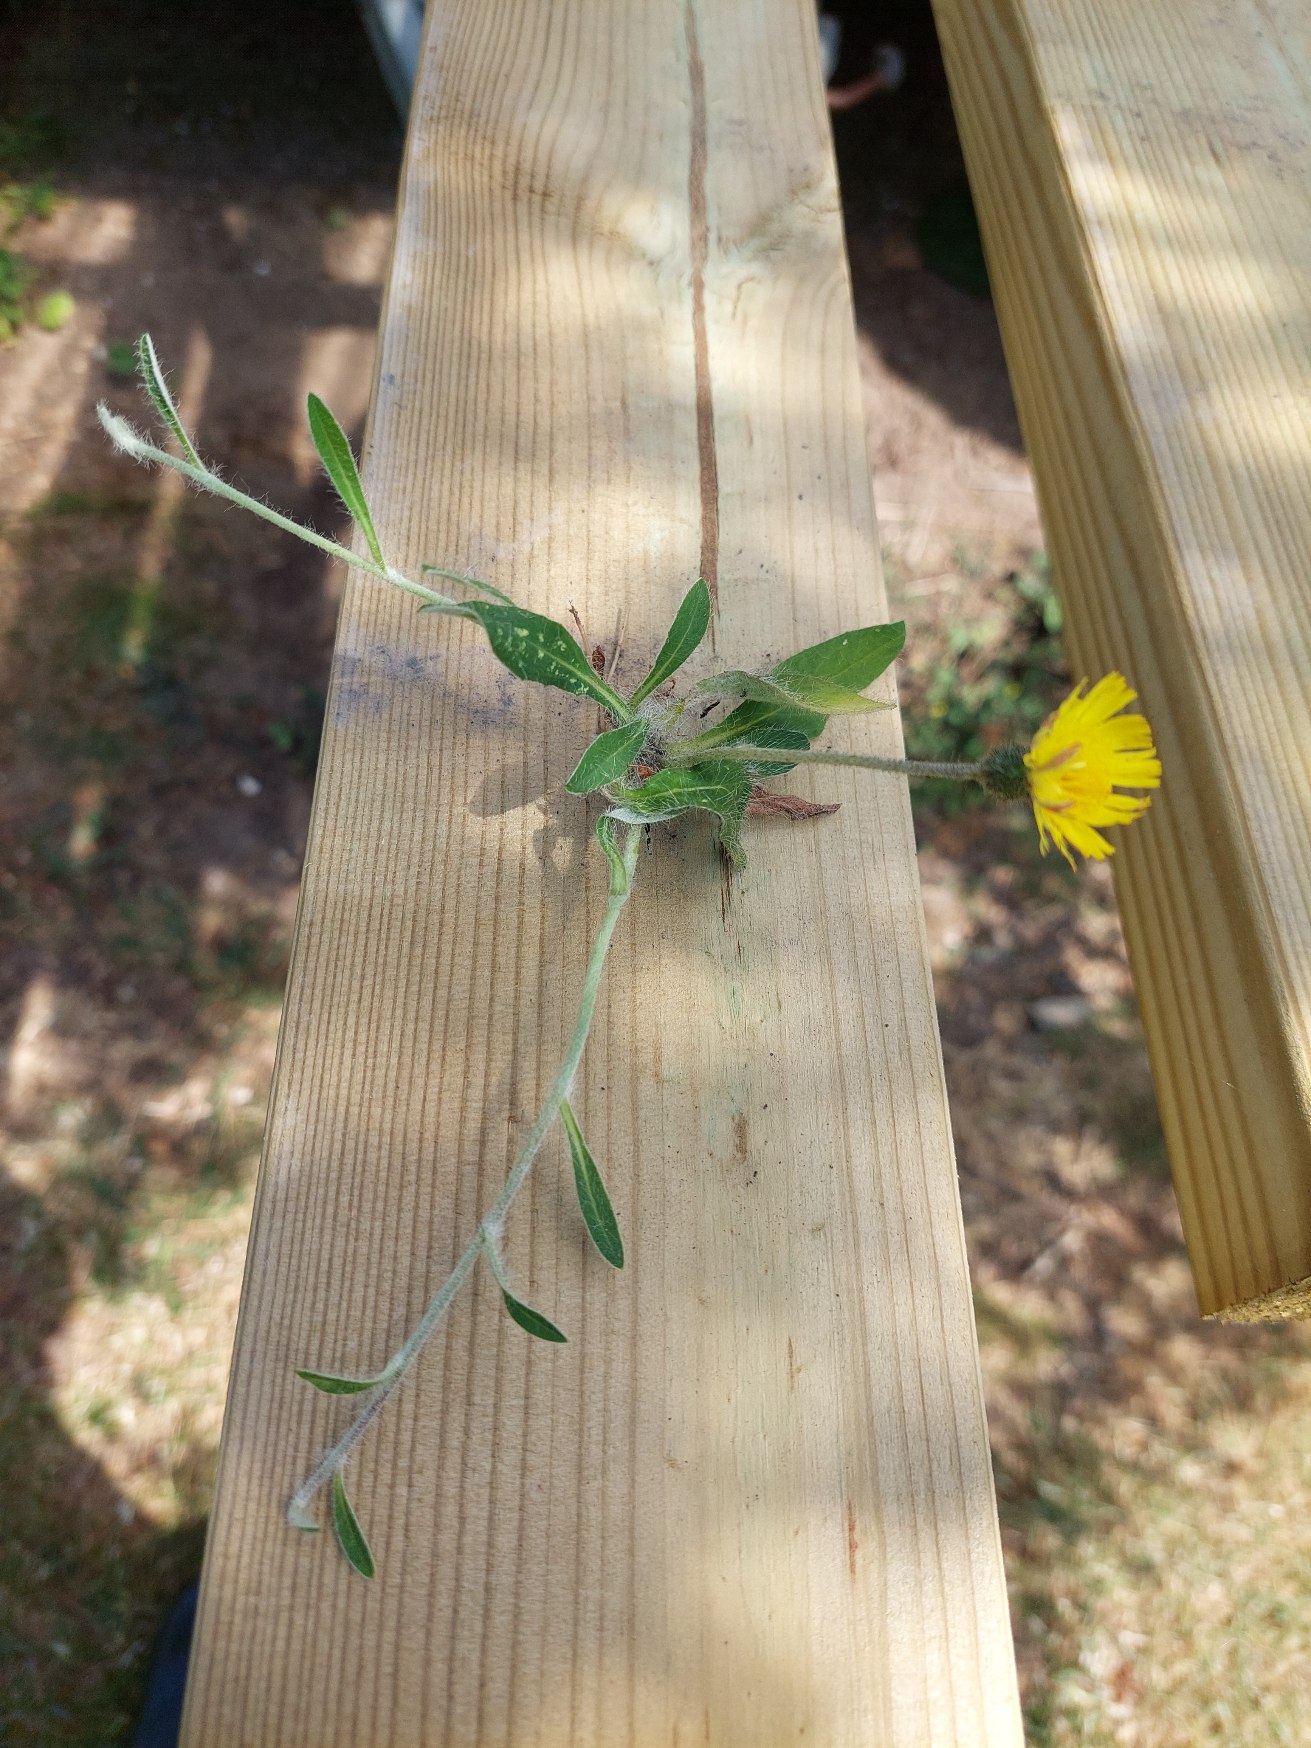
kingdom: Plantae
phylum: Tracheophyta
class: Magnoliopsida
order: Asterales
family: Asteraceae
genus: Pilosella
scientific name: Pilosella officinarum
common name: Håret høgeurt
